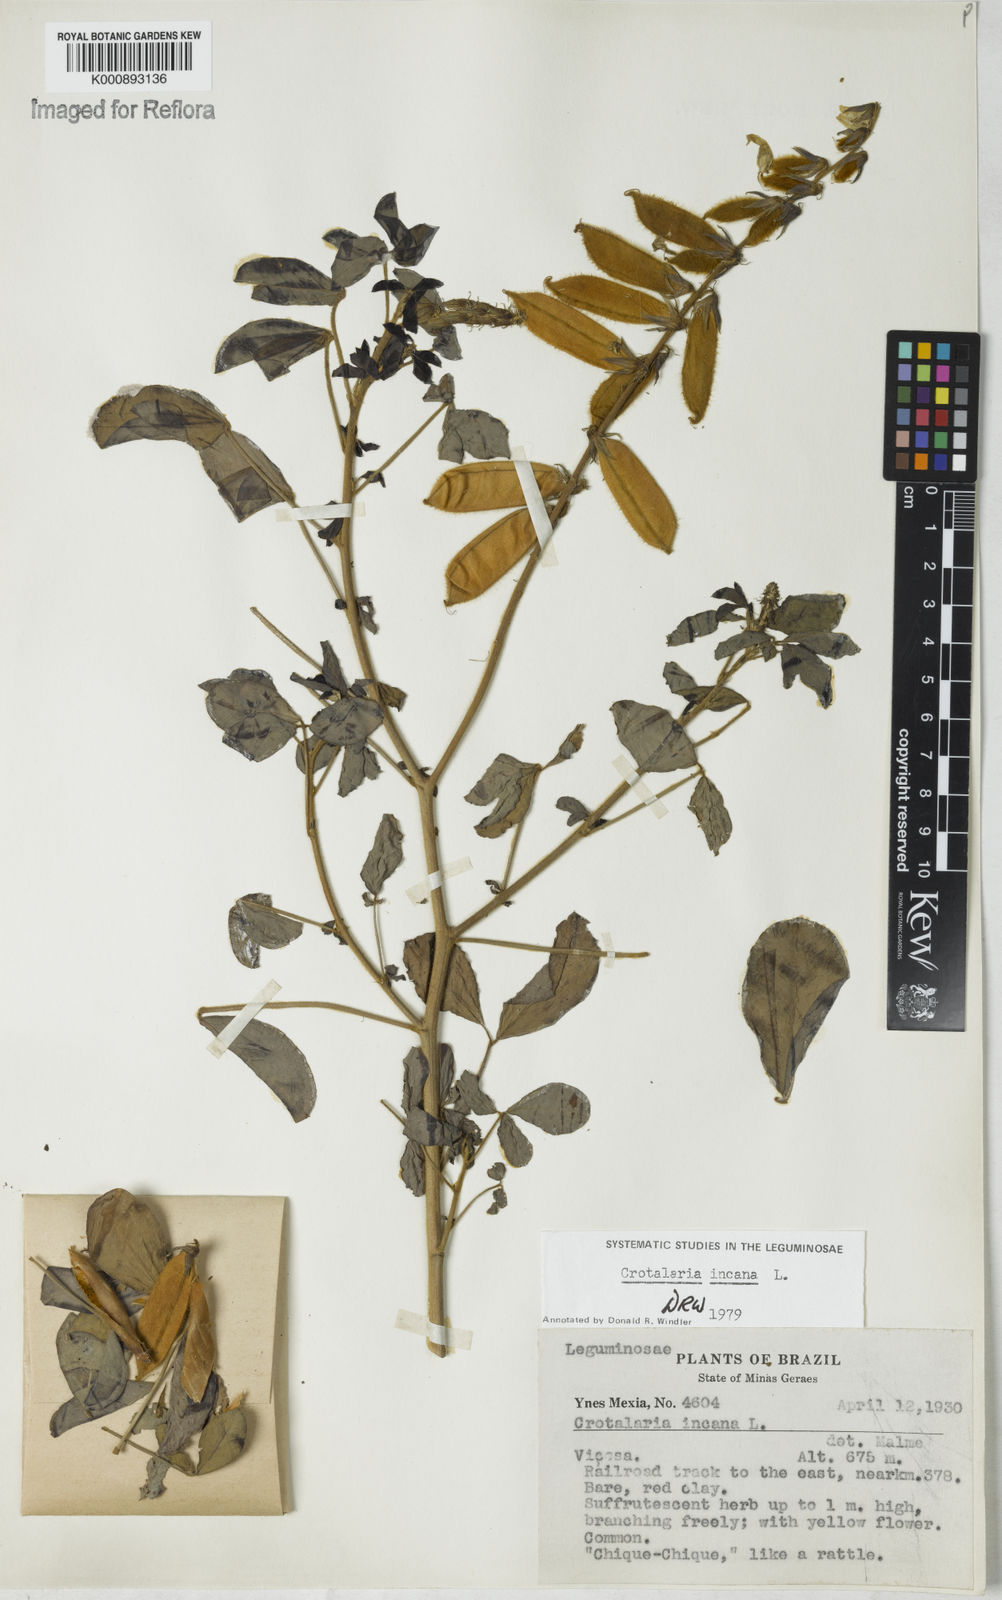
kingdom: Plantae
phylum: Tracheophyta
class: Magnoliopsida
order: Fabales
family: Fabaceae
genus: Crotalaria
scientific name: Crotalaria incana
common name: Shakeshake
